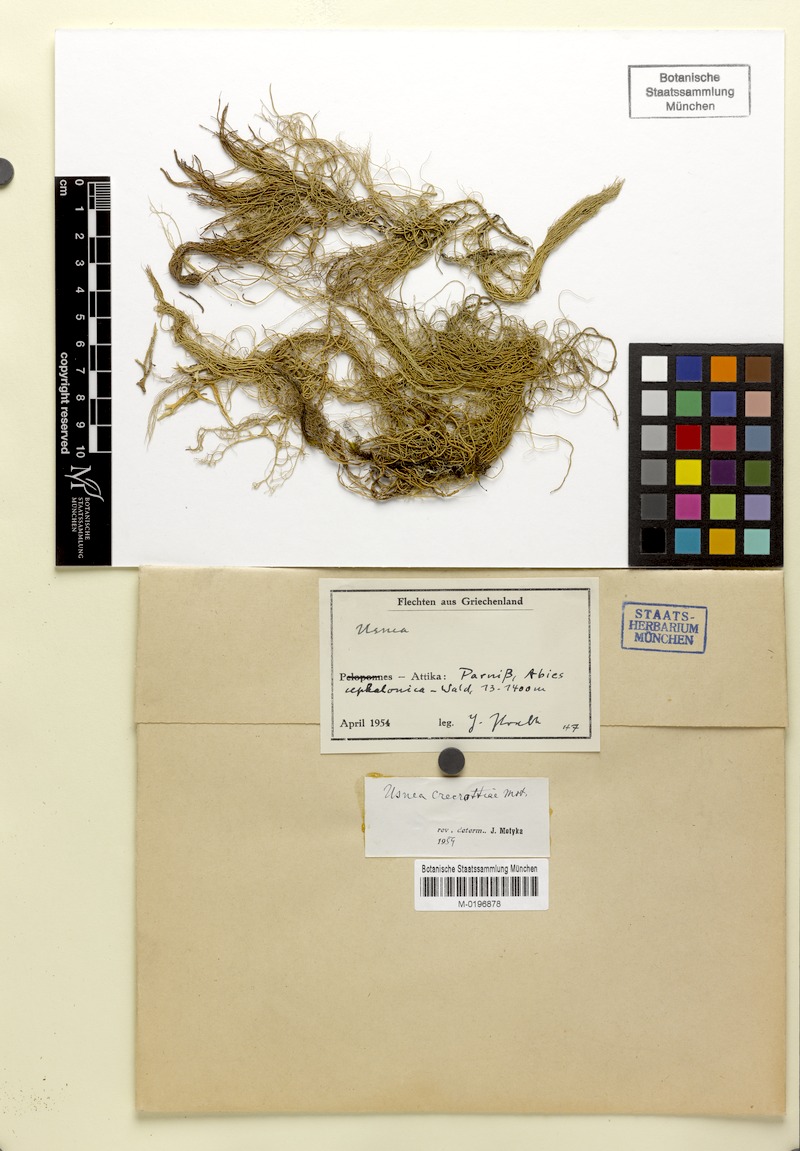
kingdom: Fungi
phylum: Ascomycota
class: Lecanoromycetes
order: Lecanorales
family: Parmeliaceae
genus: Usnea
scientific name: Usnea
